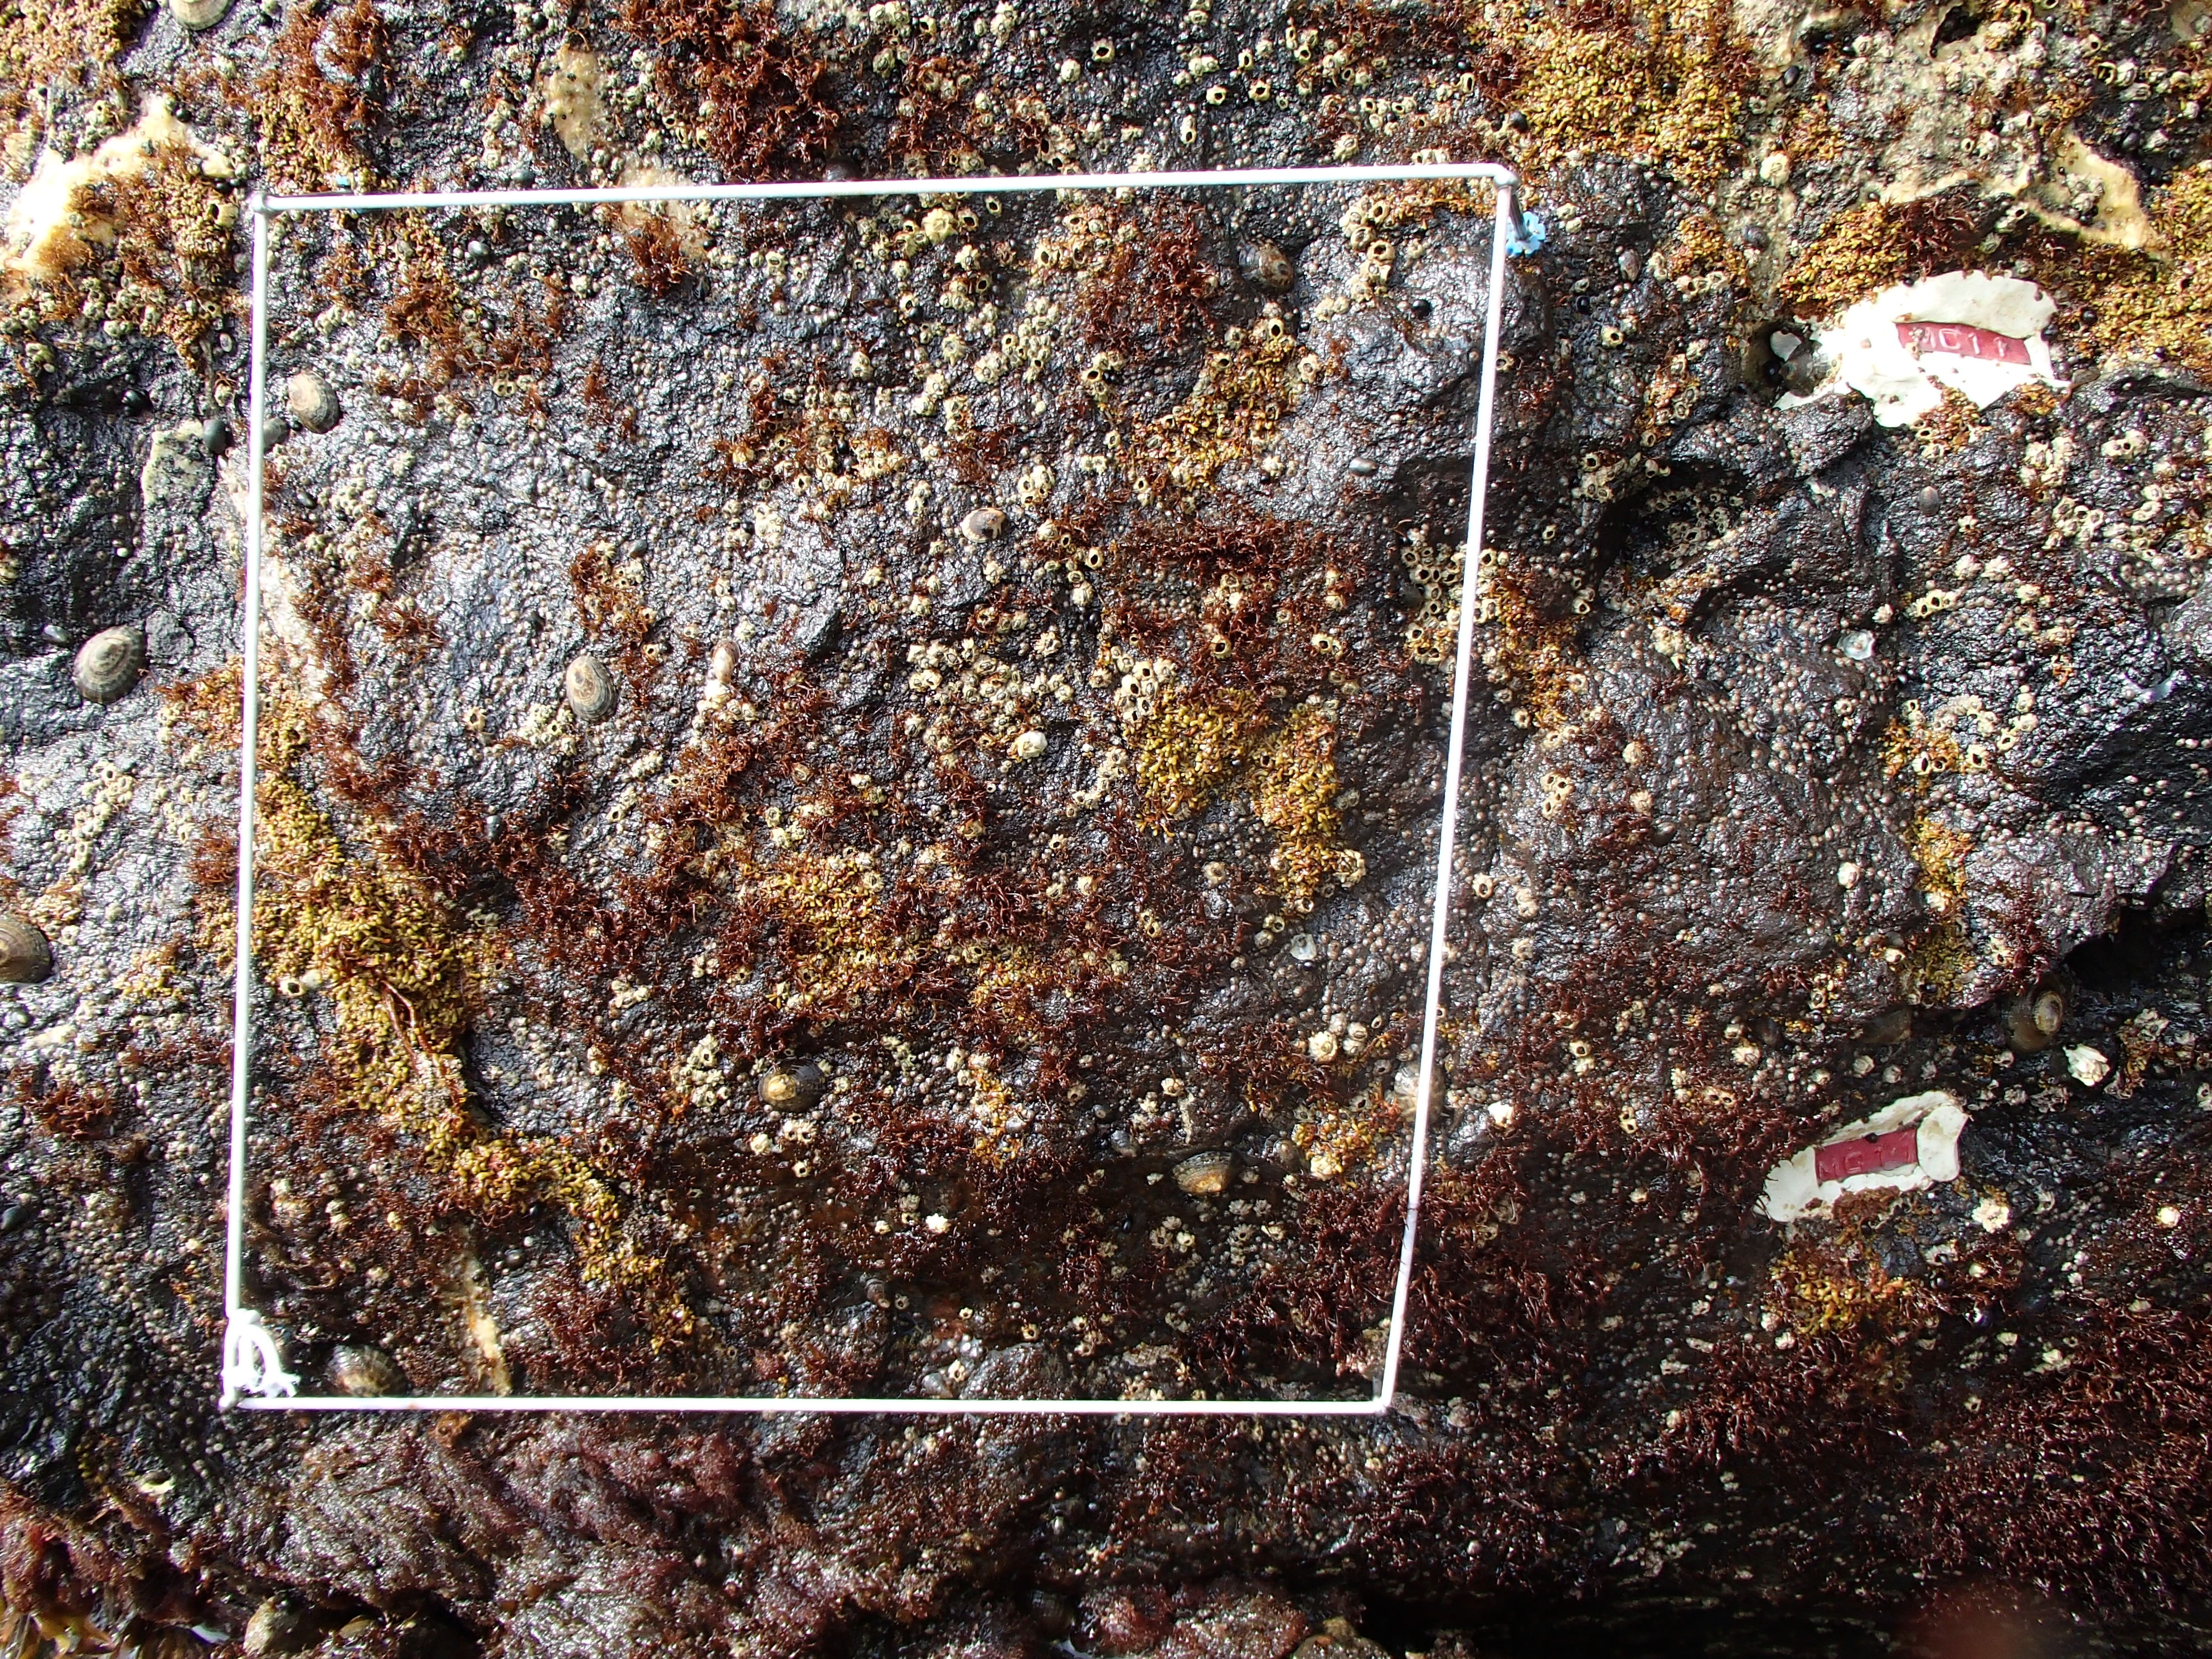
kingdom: Animalia
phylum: Arthropoda
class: Maxillopoda
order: Sessilia
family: Chthamalidae
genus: Chthamalus
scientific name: Chthamalus dalli
